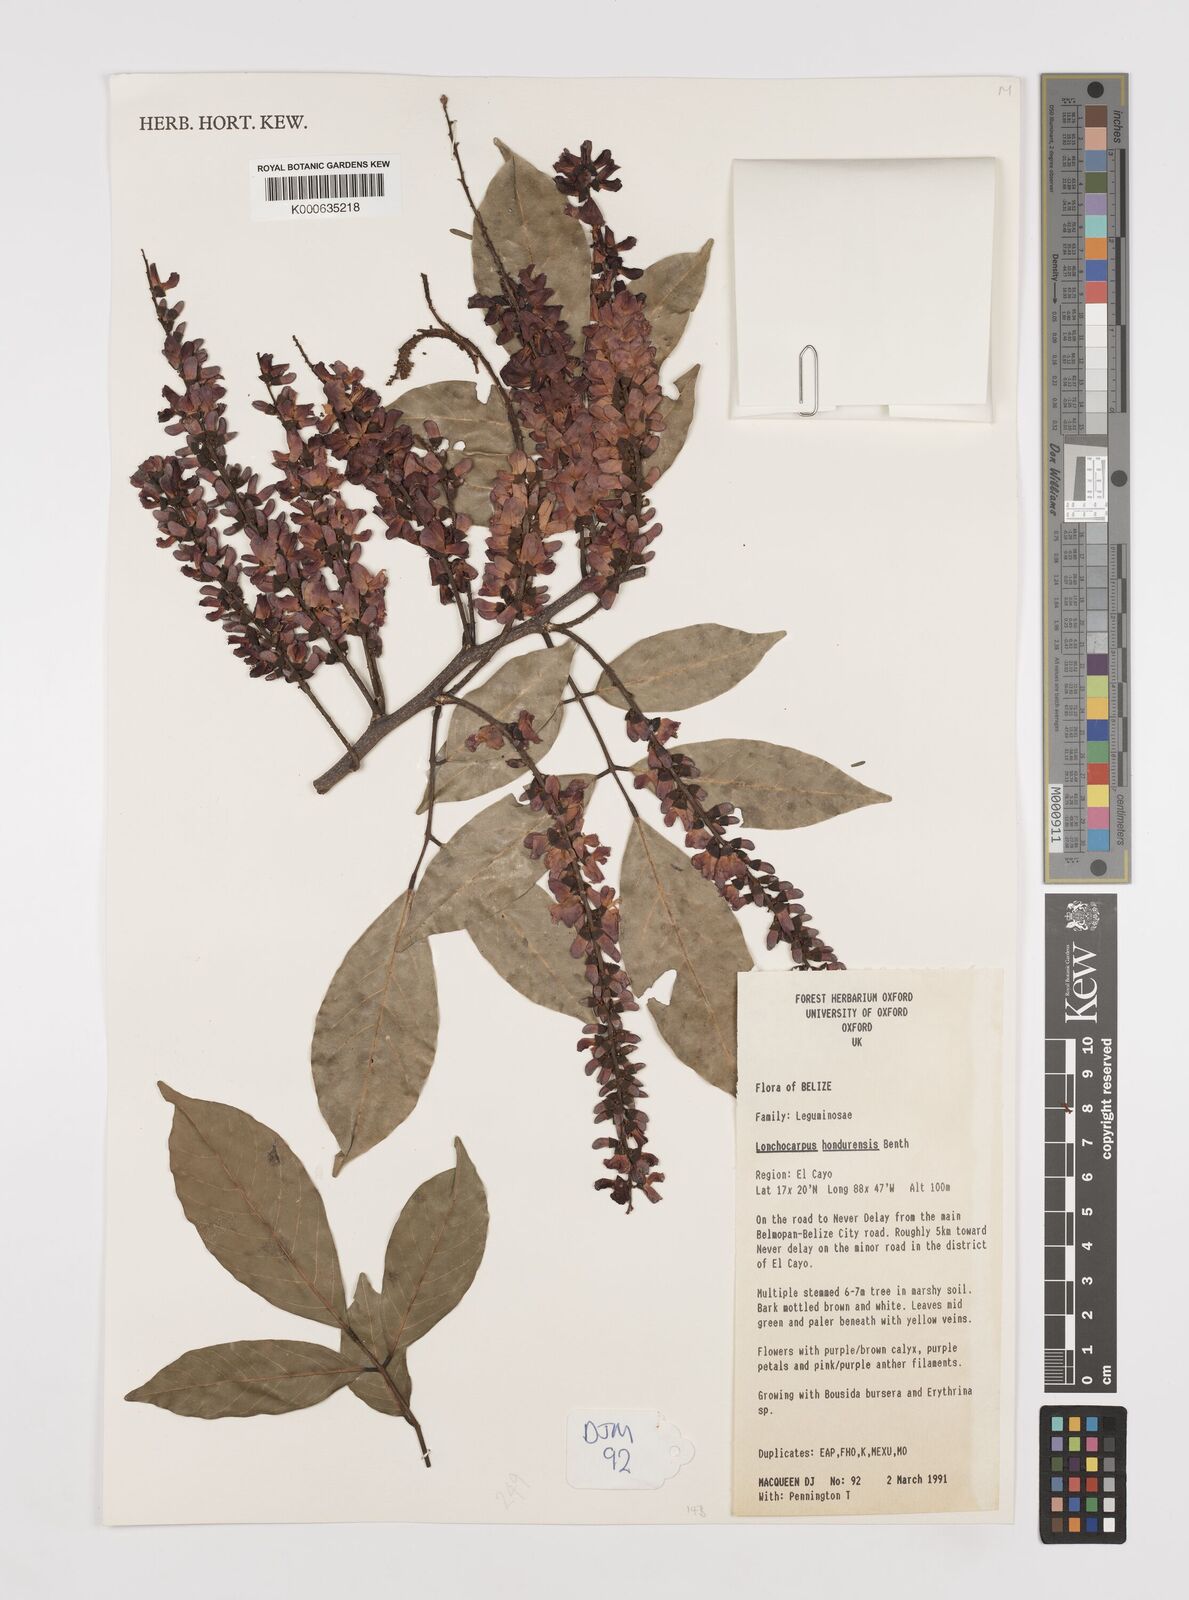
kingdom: Plantae
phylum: Tracheophyta
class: Magnoliopsida
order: Fabales
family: Fabaceae
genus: Lonchocarpus
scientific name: Lonchocarpus hondurensis
